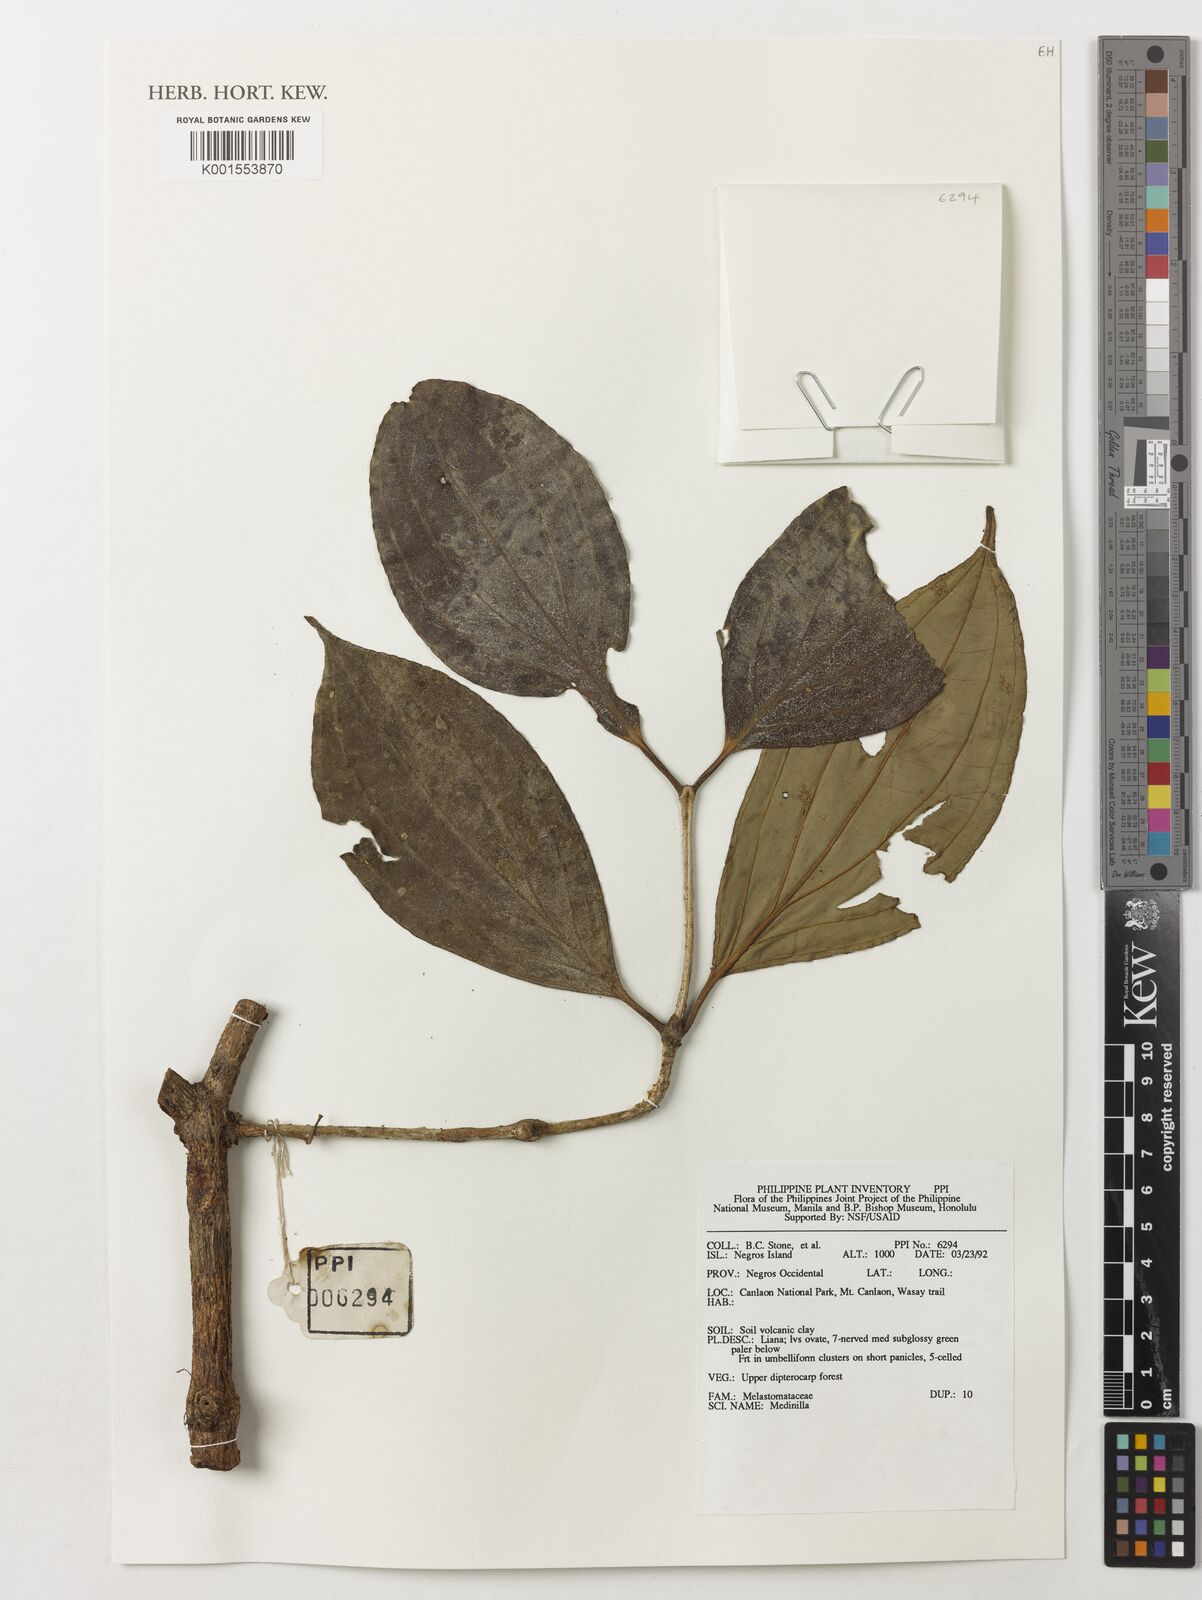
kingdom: Plantae
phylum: Tracheophyta
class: Magnoliopsida
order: Myrtales
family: Melastomataceae
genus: Medinilla
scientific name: Medinilla
